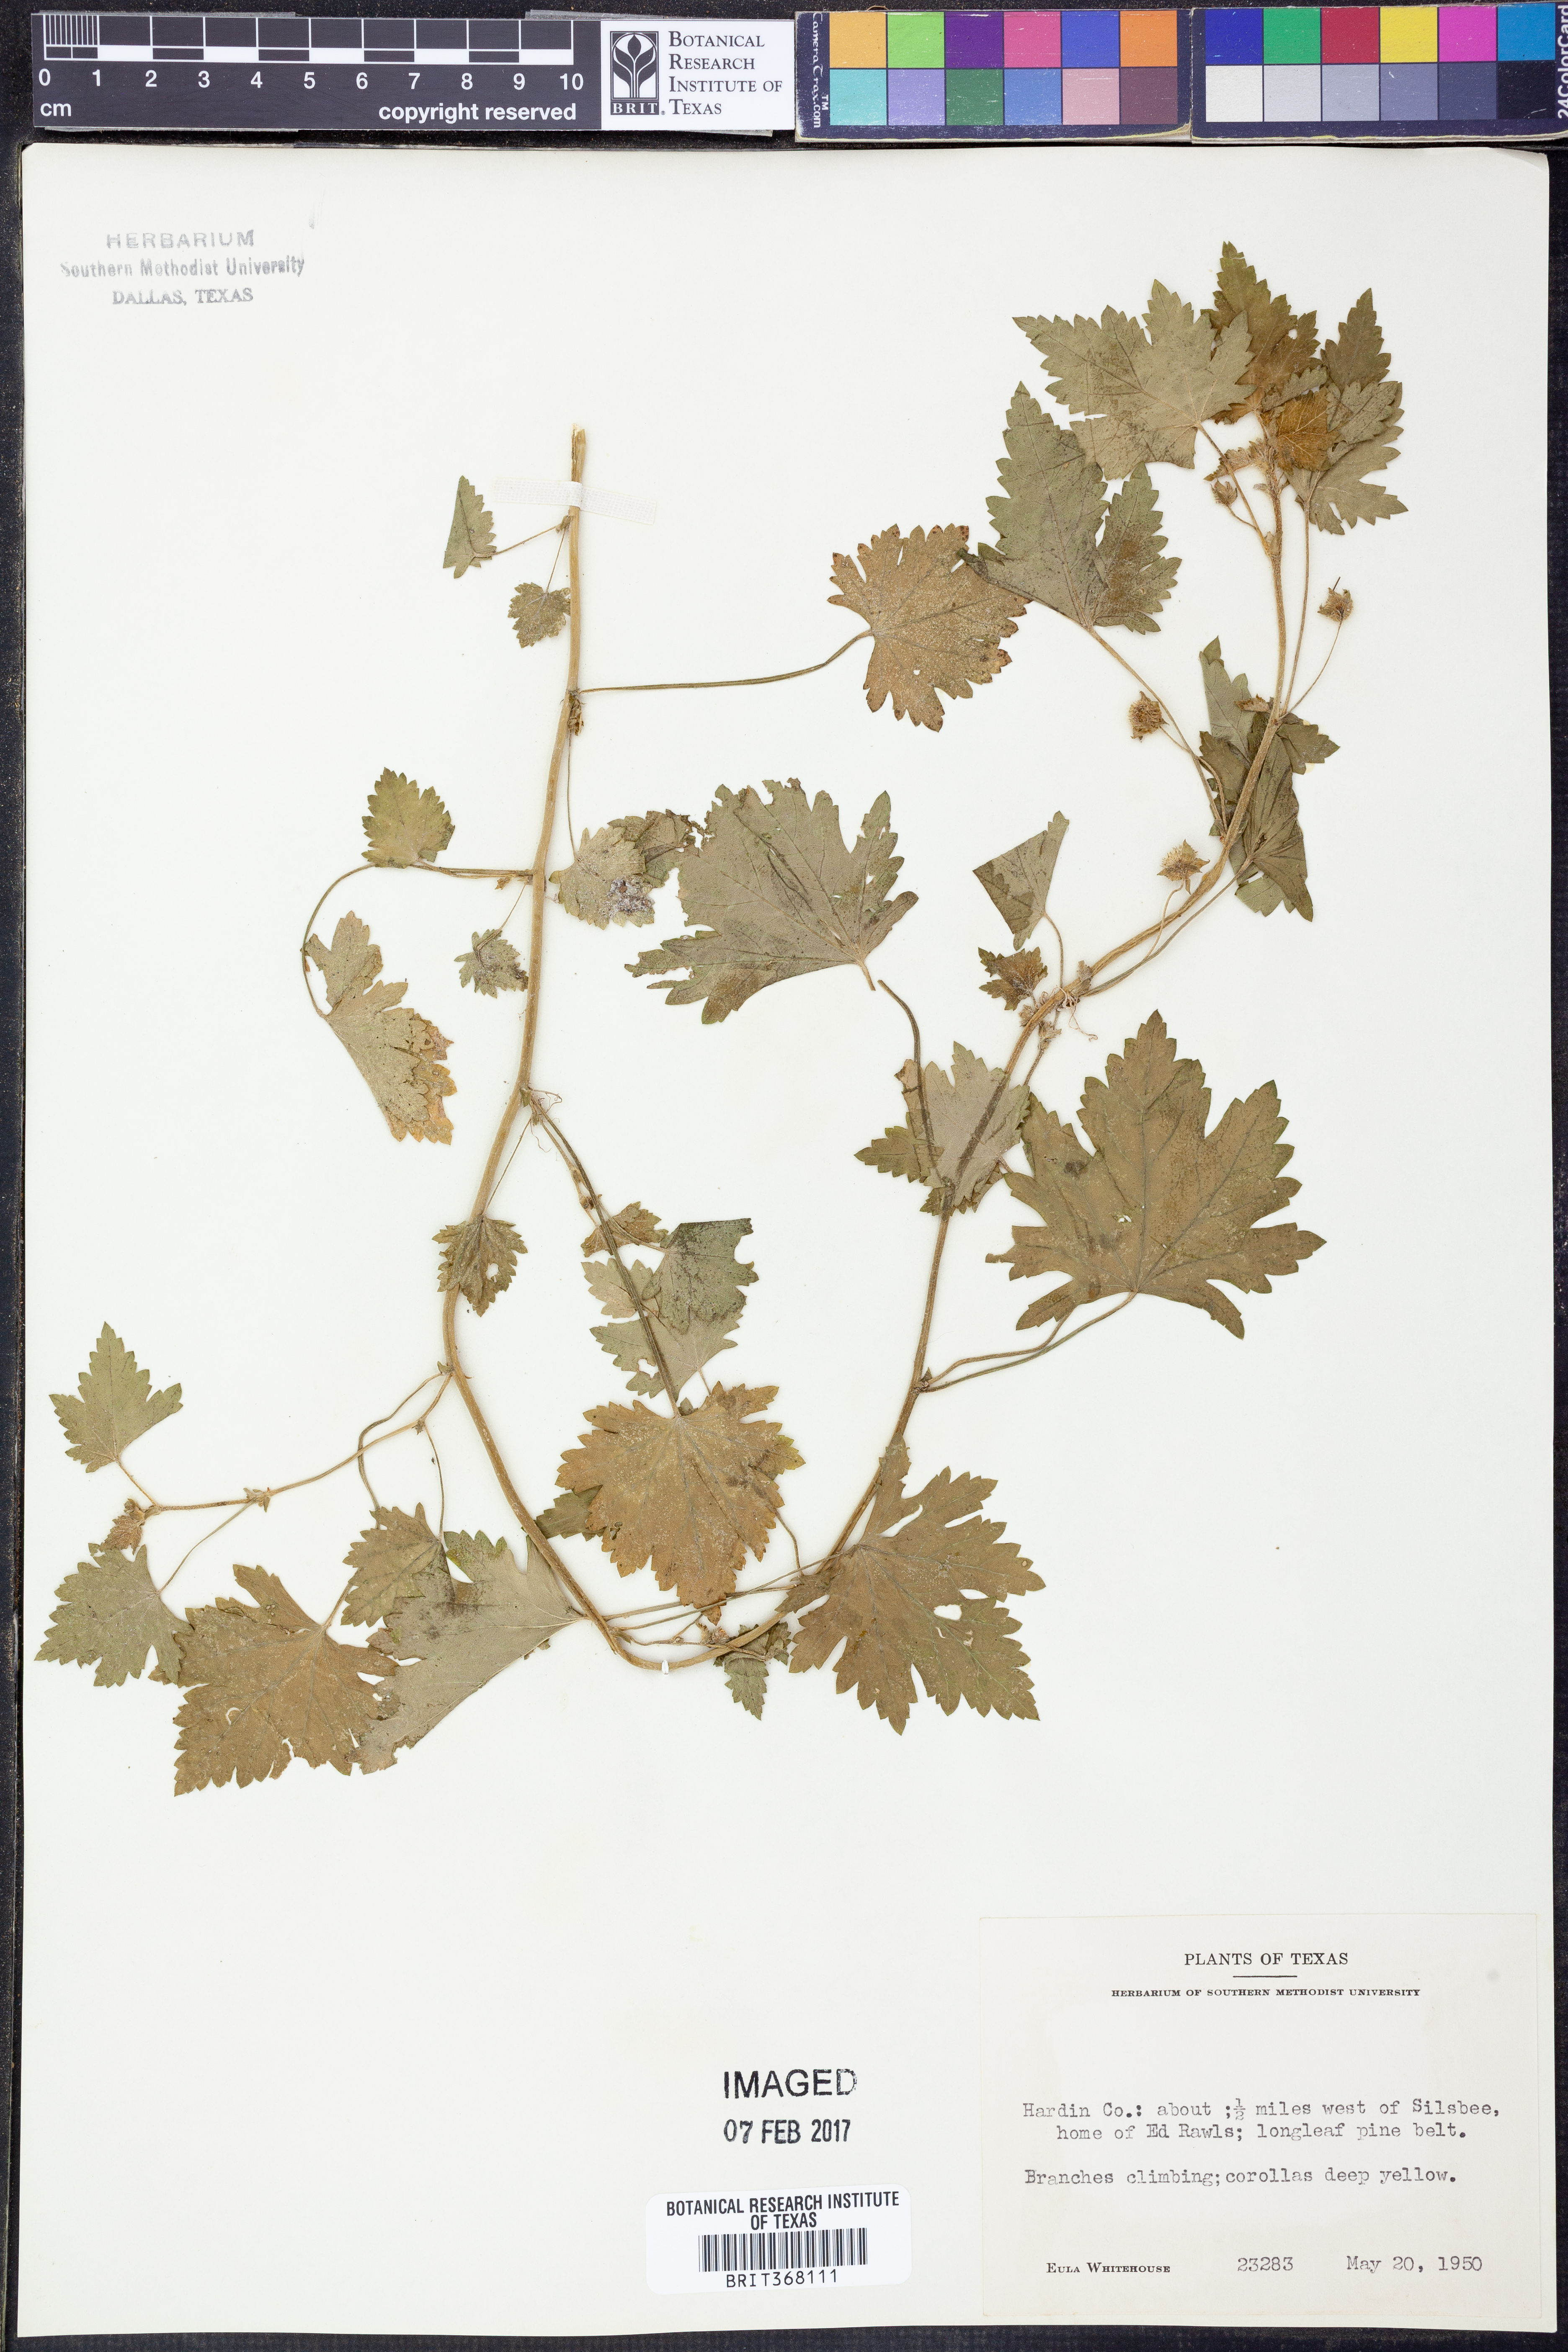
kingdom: Plantae
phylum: Tracheophyta
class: Magnoliopsida
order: Malvales
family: Malvaceae
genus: Modiola
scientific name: Modiola
